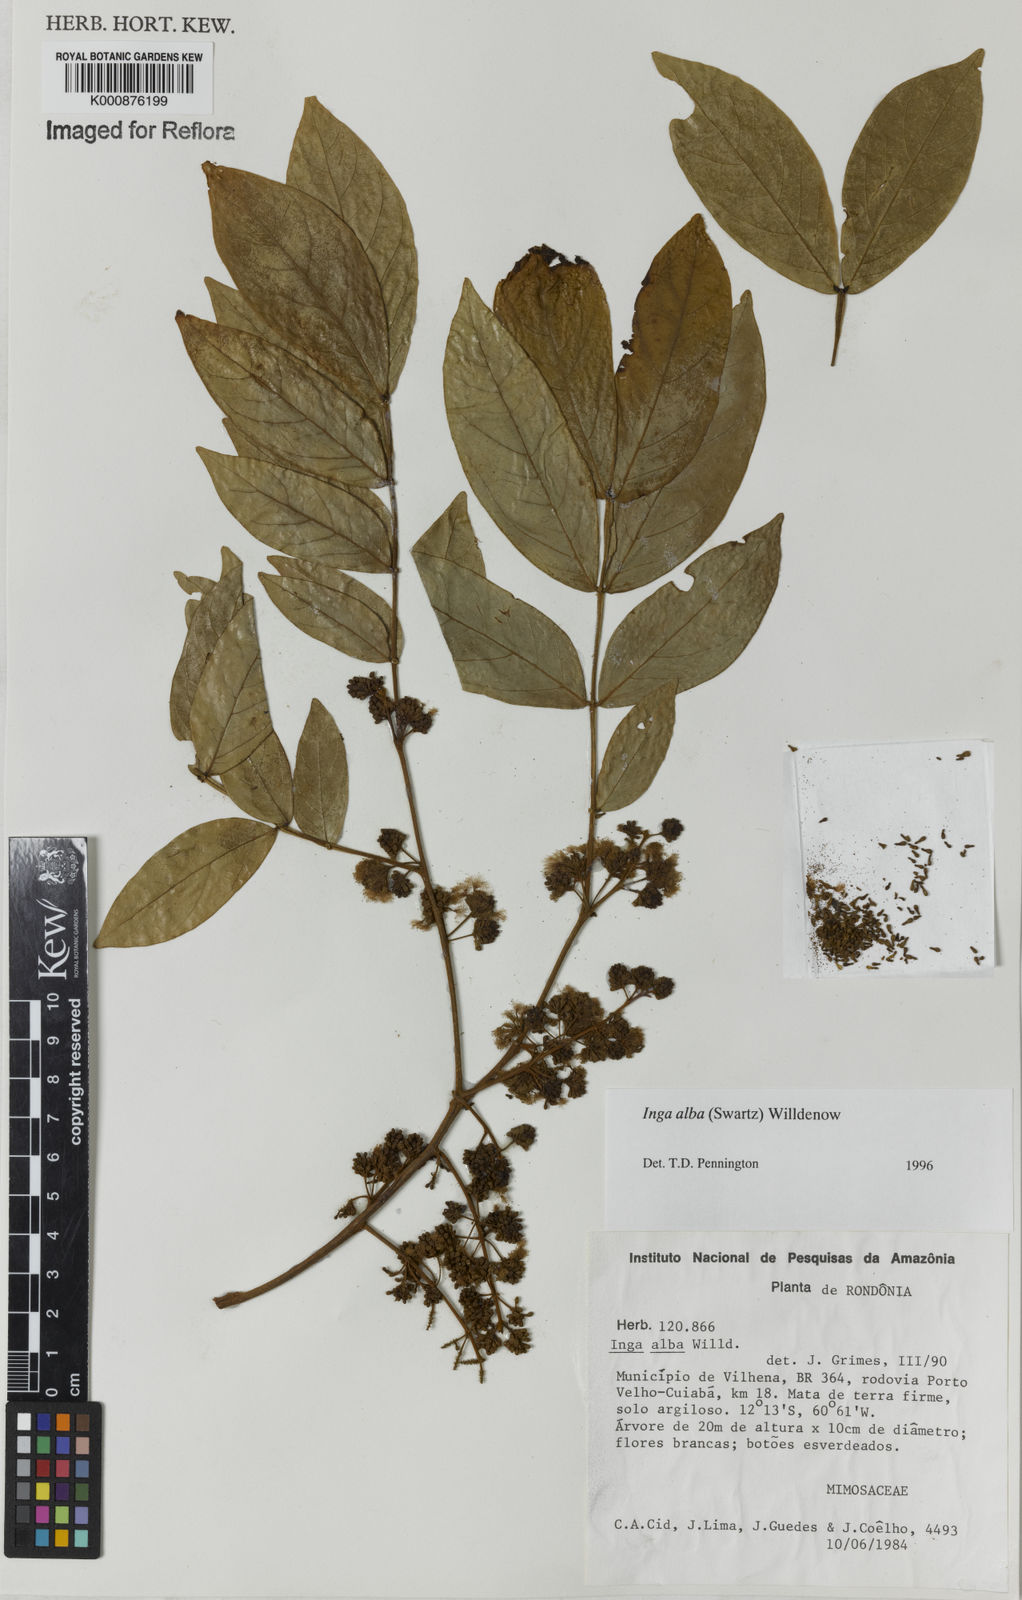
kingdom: Plantae
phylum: Tracheophyta
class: Magnoliopsida
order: Fabales
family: Fabaceae
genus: Inga
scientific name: Inga alba
